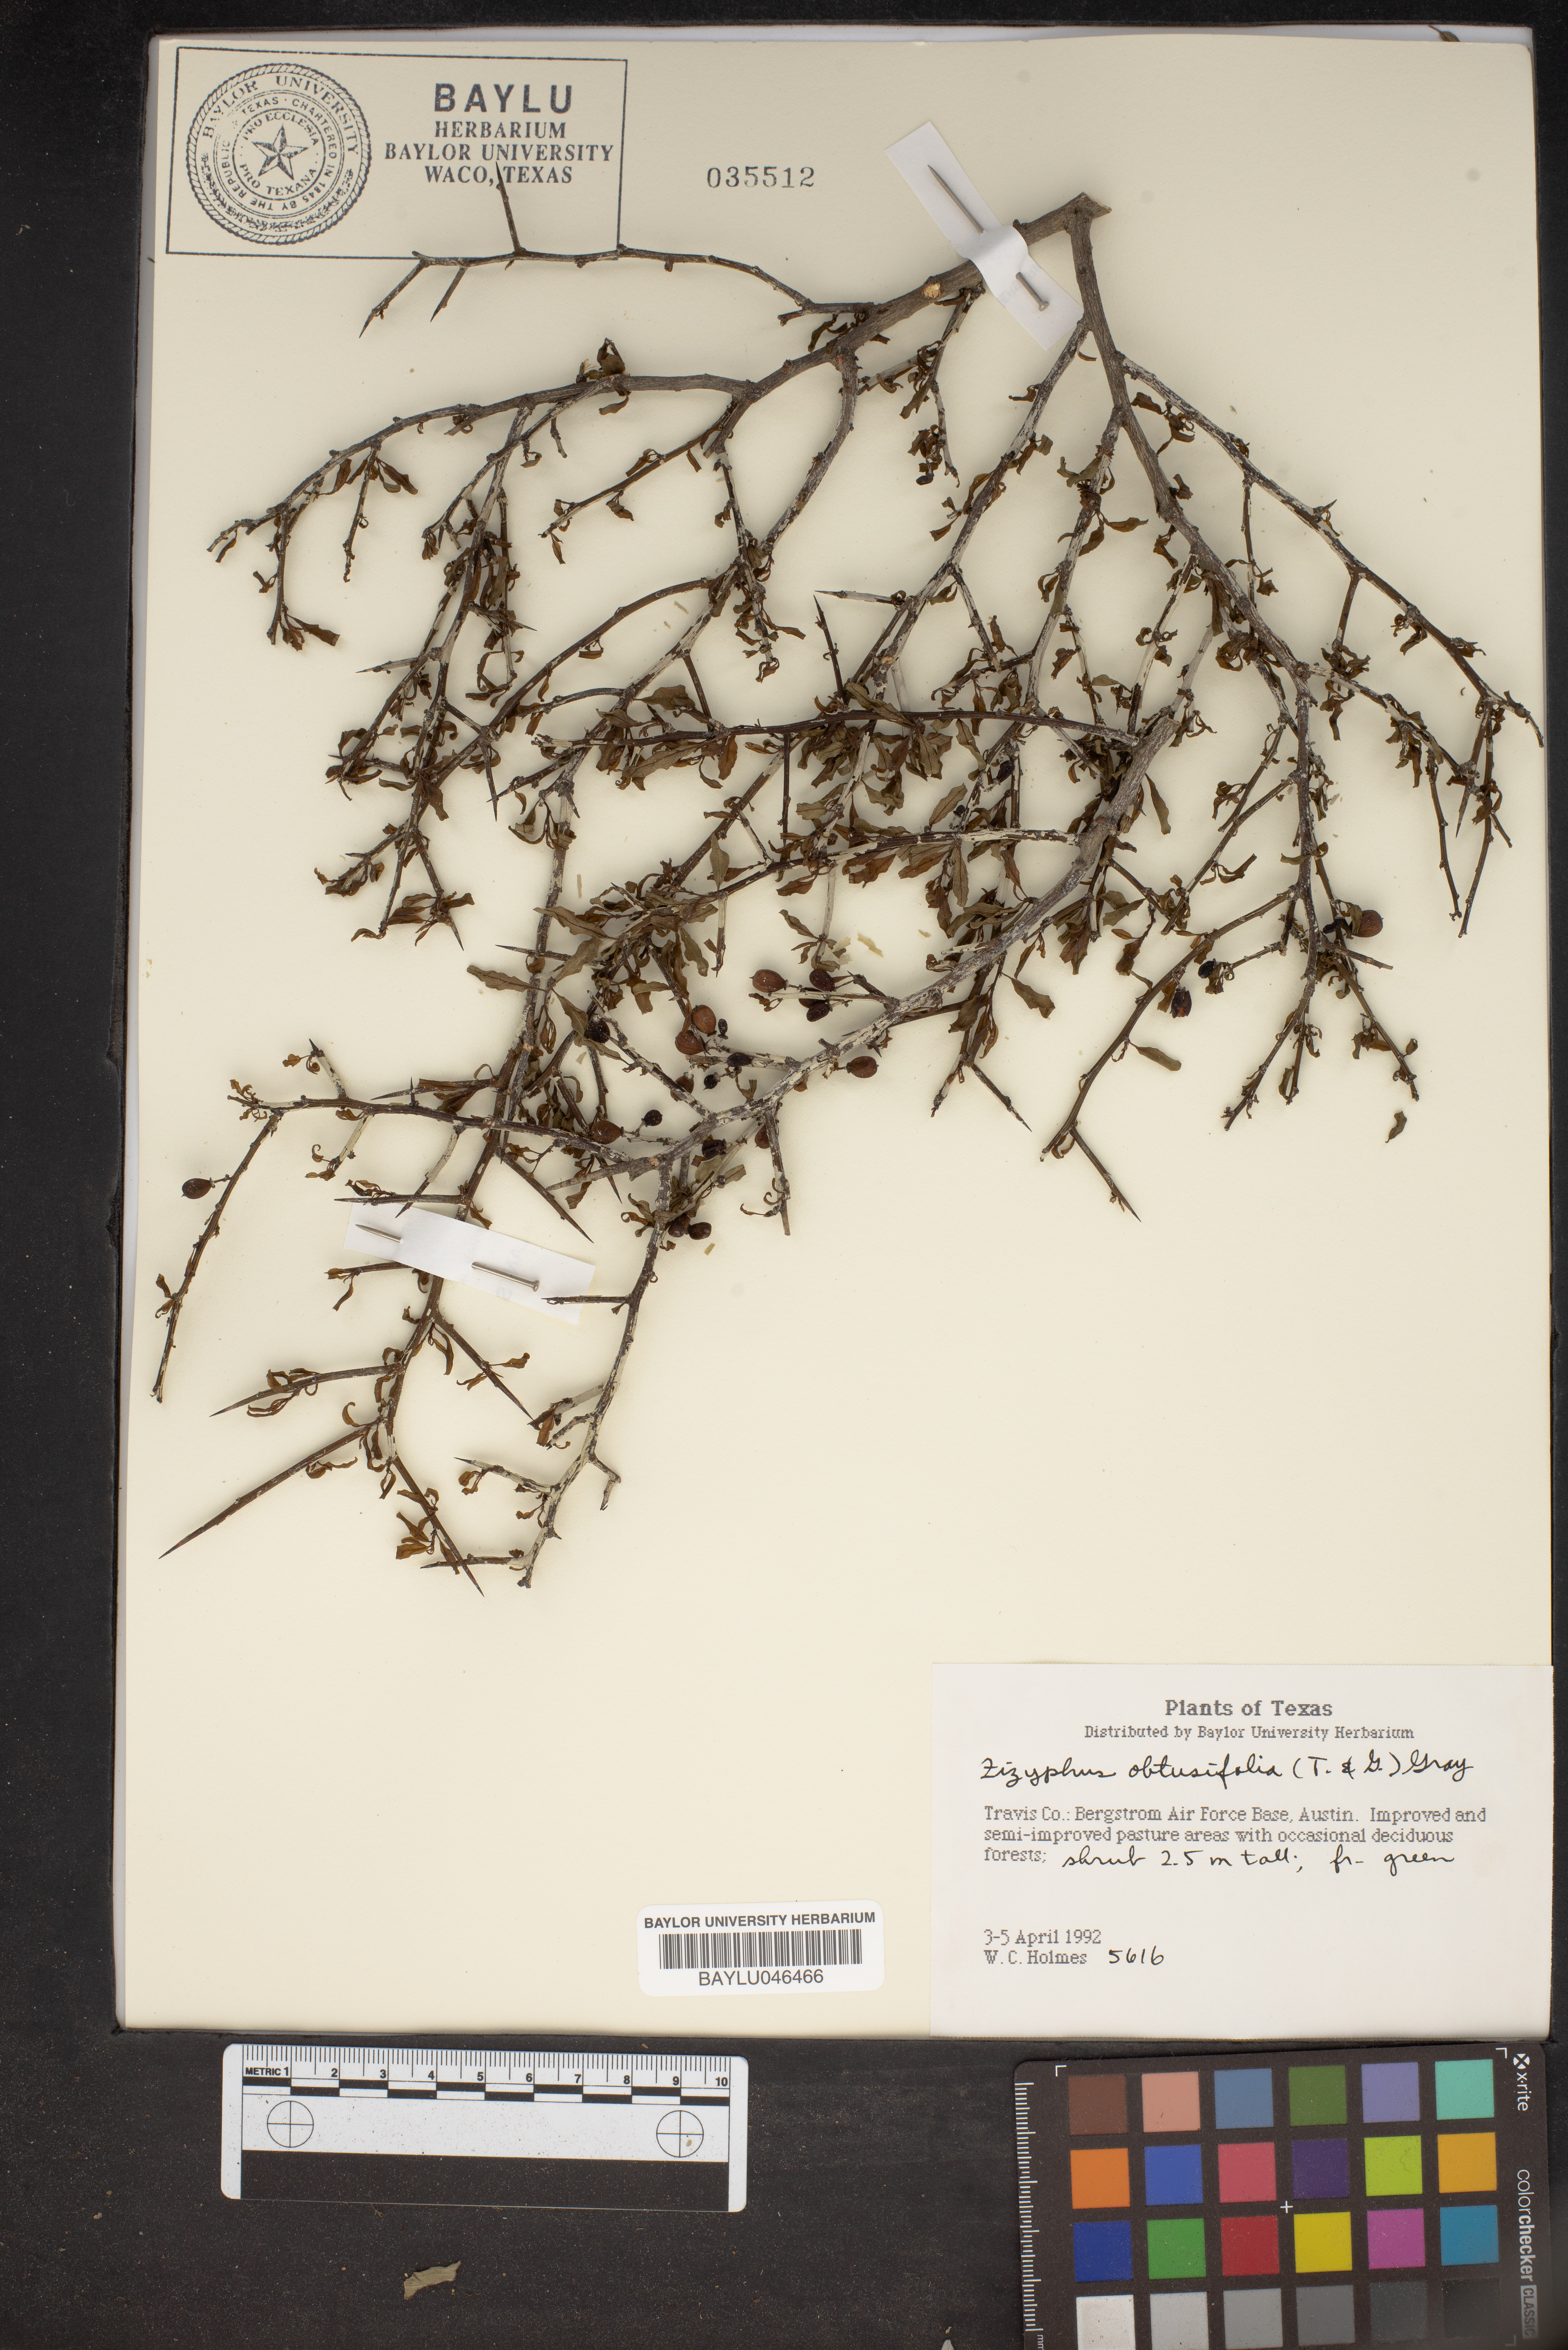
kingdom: Plantae
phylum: Tracheophyta
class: Magnoliopsida
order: Rosales
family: Rhamnaceae
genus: Sarcomphalus
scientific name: Sarcomphalus obtusifolius
